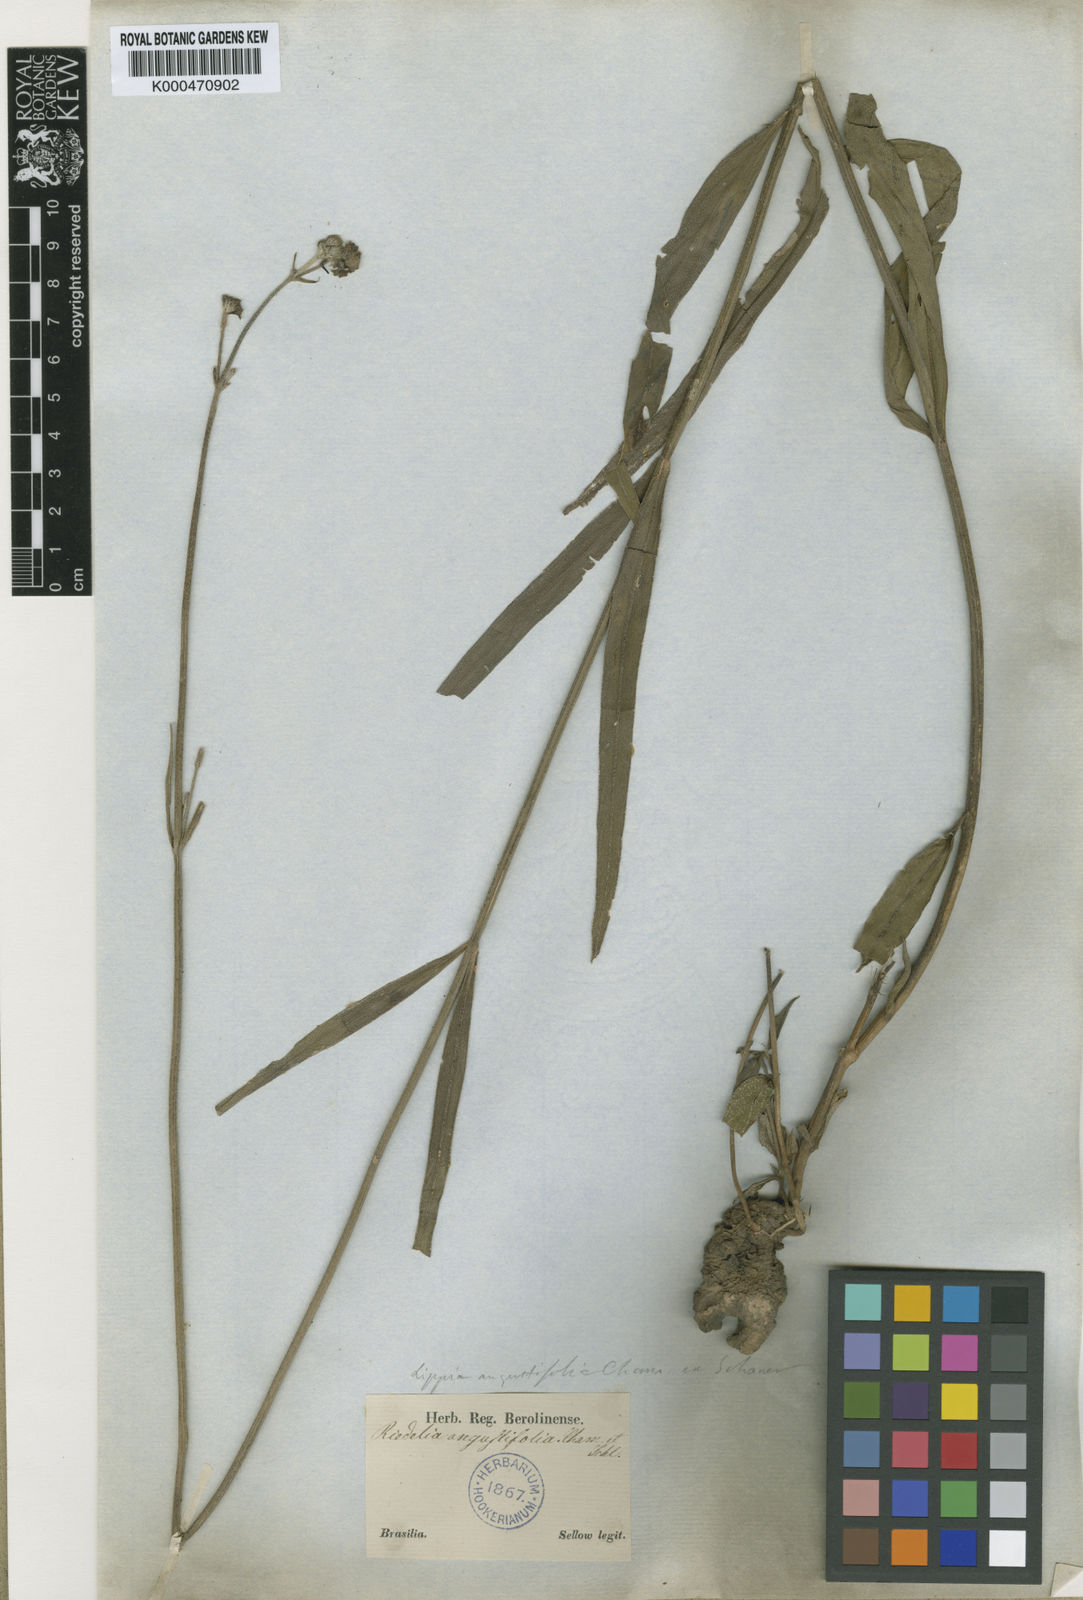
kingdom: Plantae
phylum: Tracheophyta
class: Magnoliopsida
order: Lamiales
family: Verbenaceae
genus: Lippia
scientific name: Lippia angustifolia
